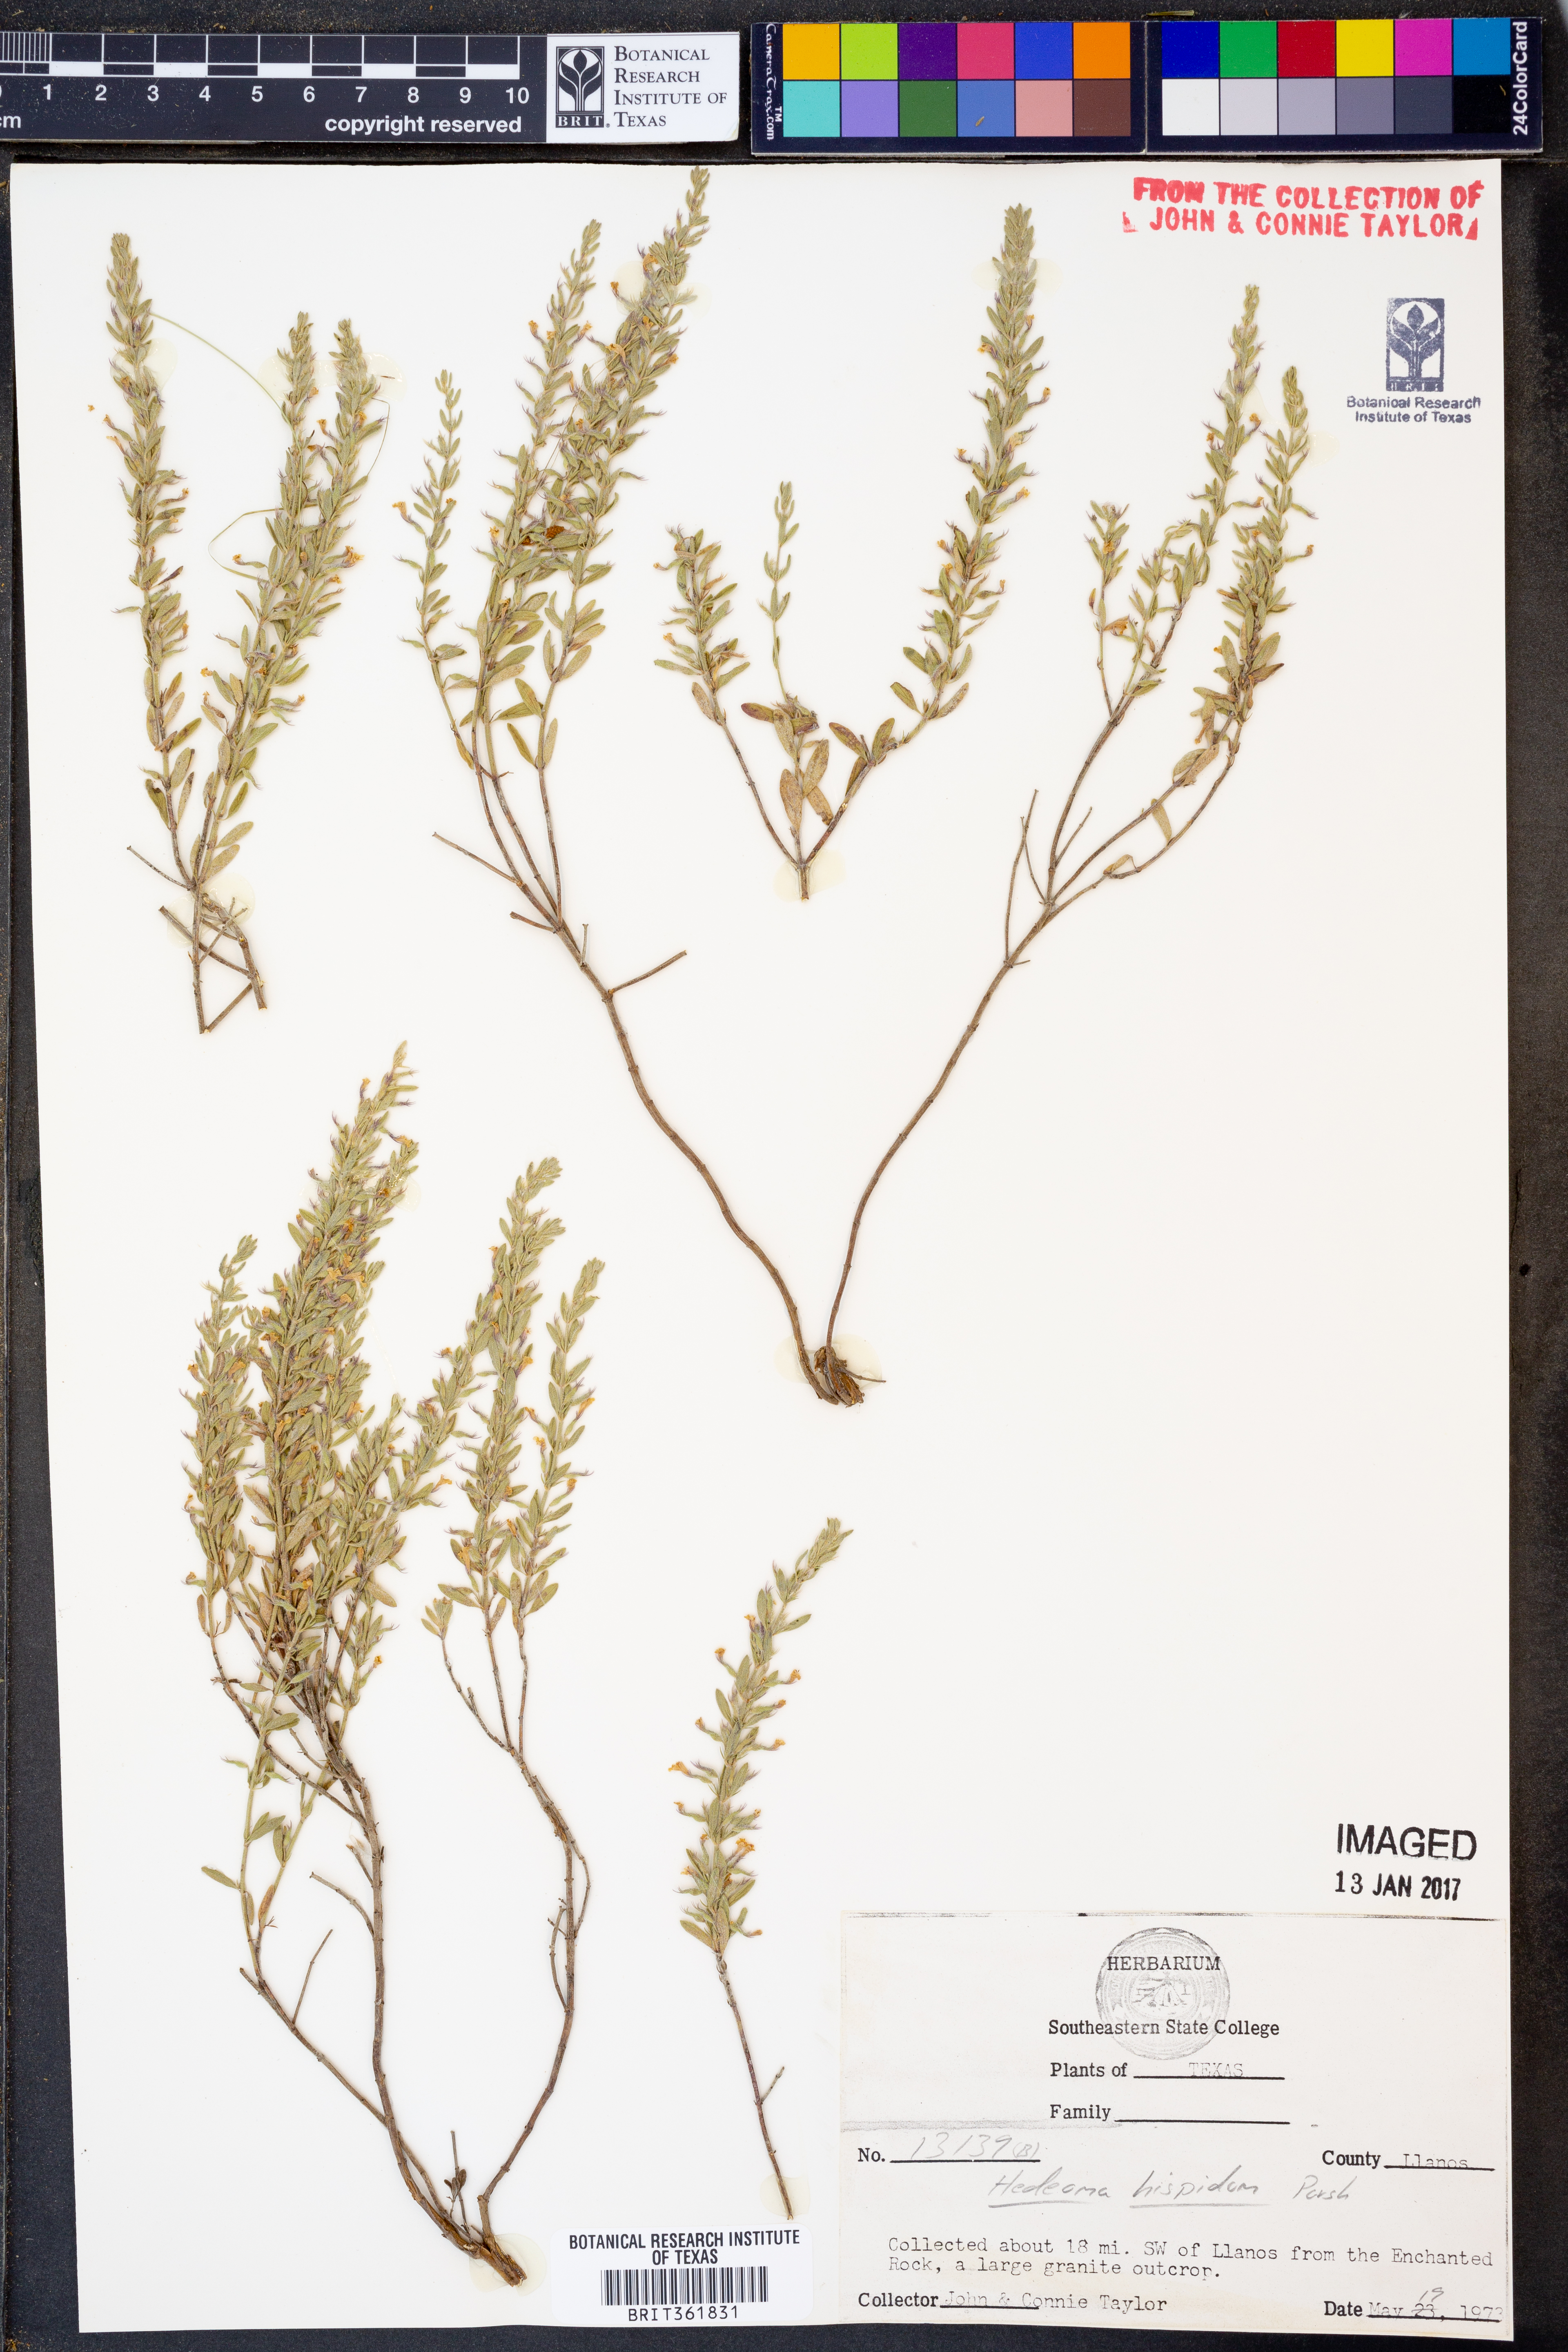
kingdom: Plantae
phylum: Tracheophyta
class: Magnoliopsida
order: Lamiales
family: Lamiaceae
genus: Hedeoma
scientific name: Hedeoma hispida
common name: Mock pennyroyal
